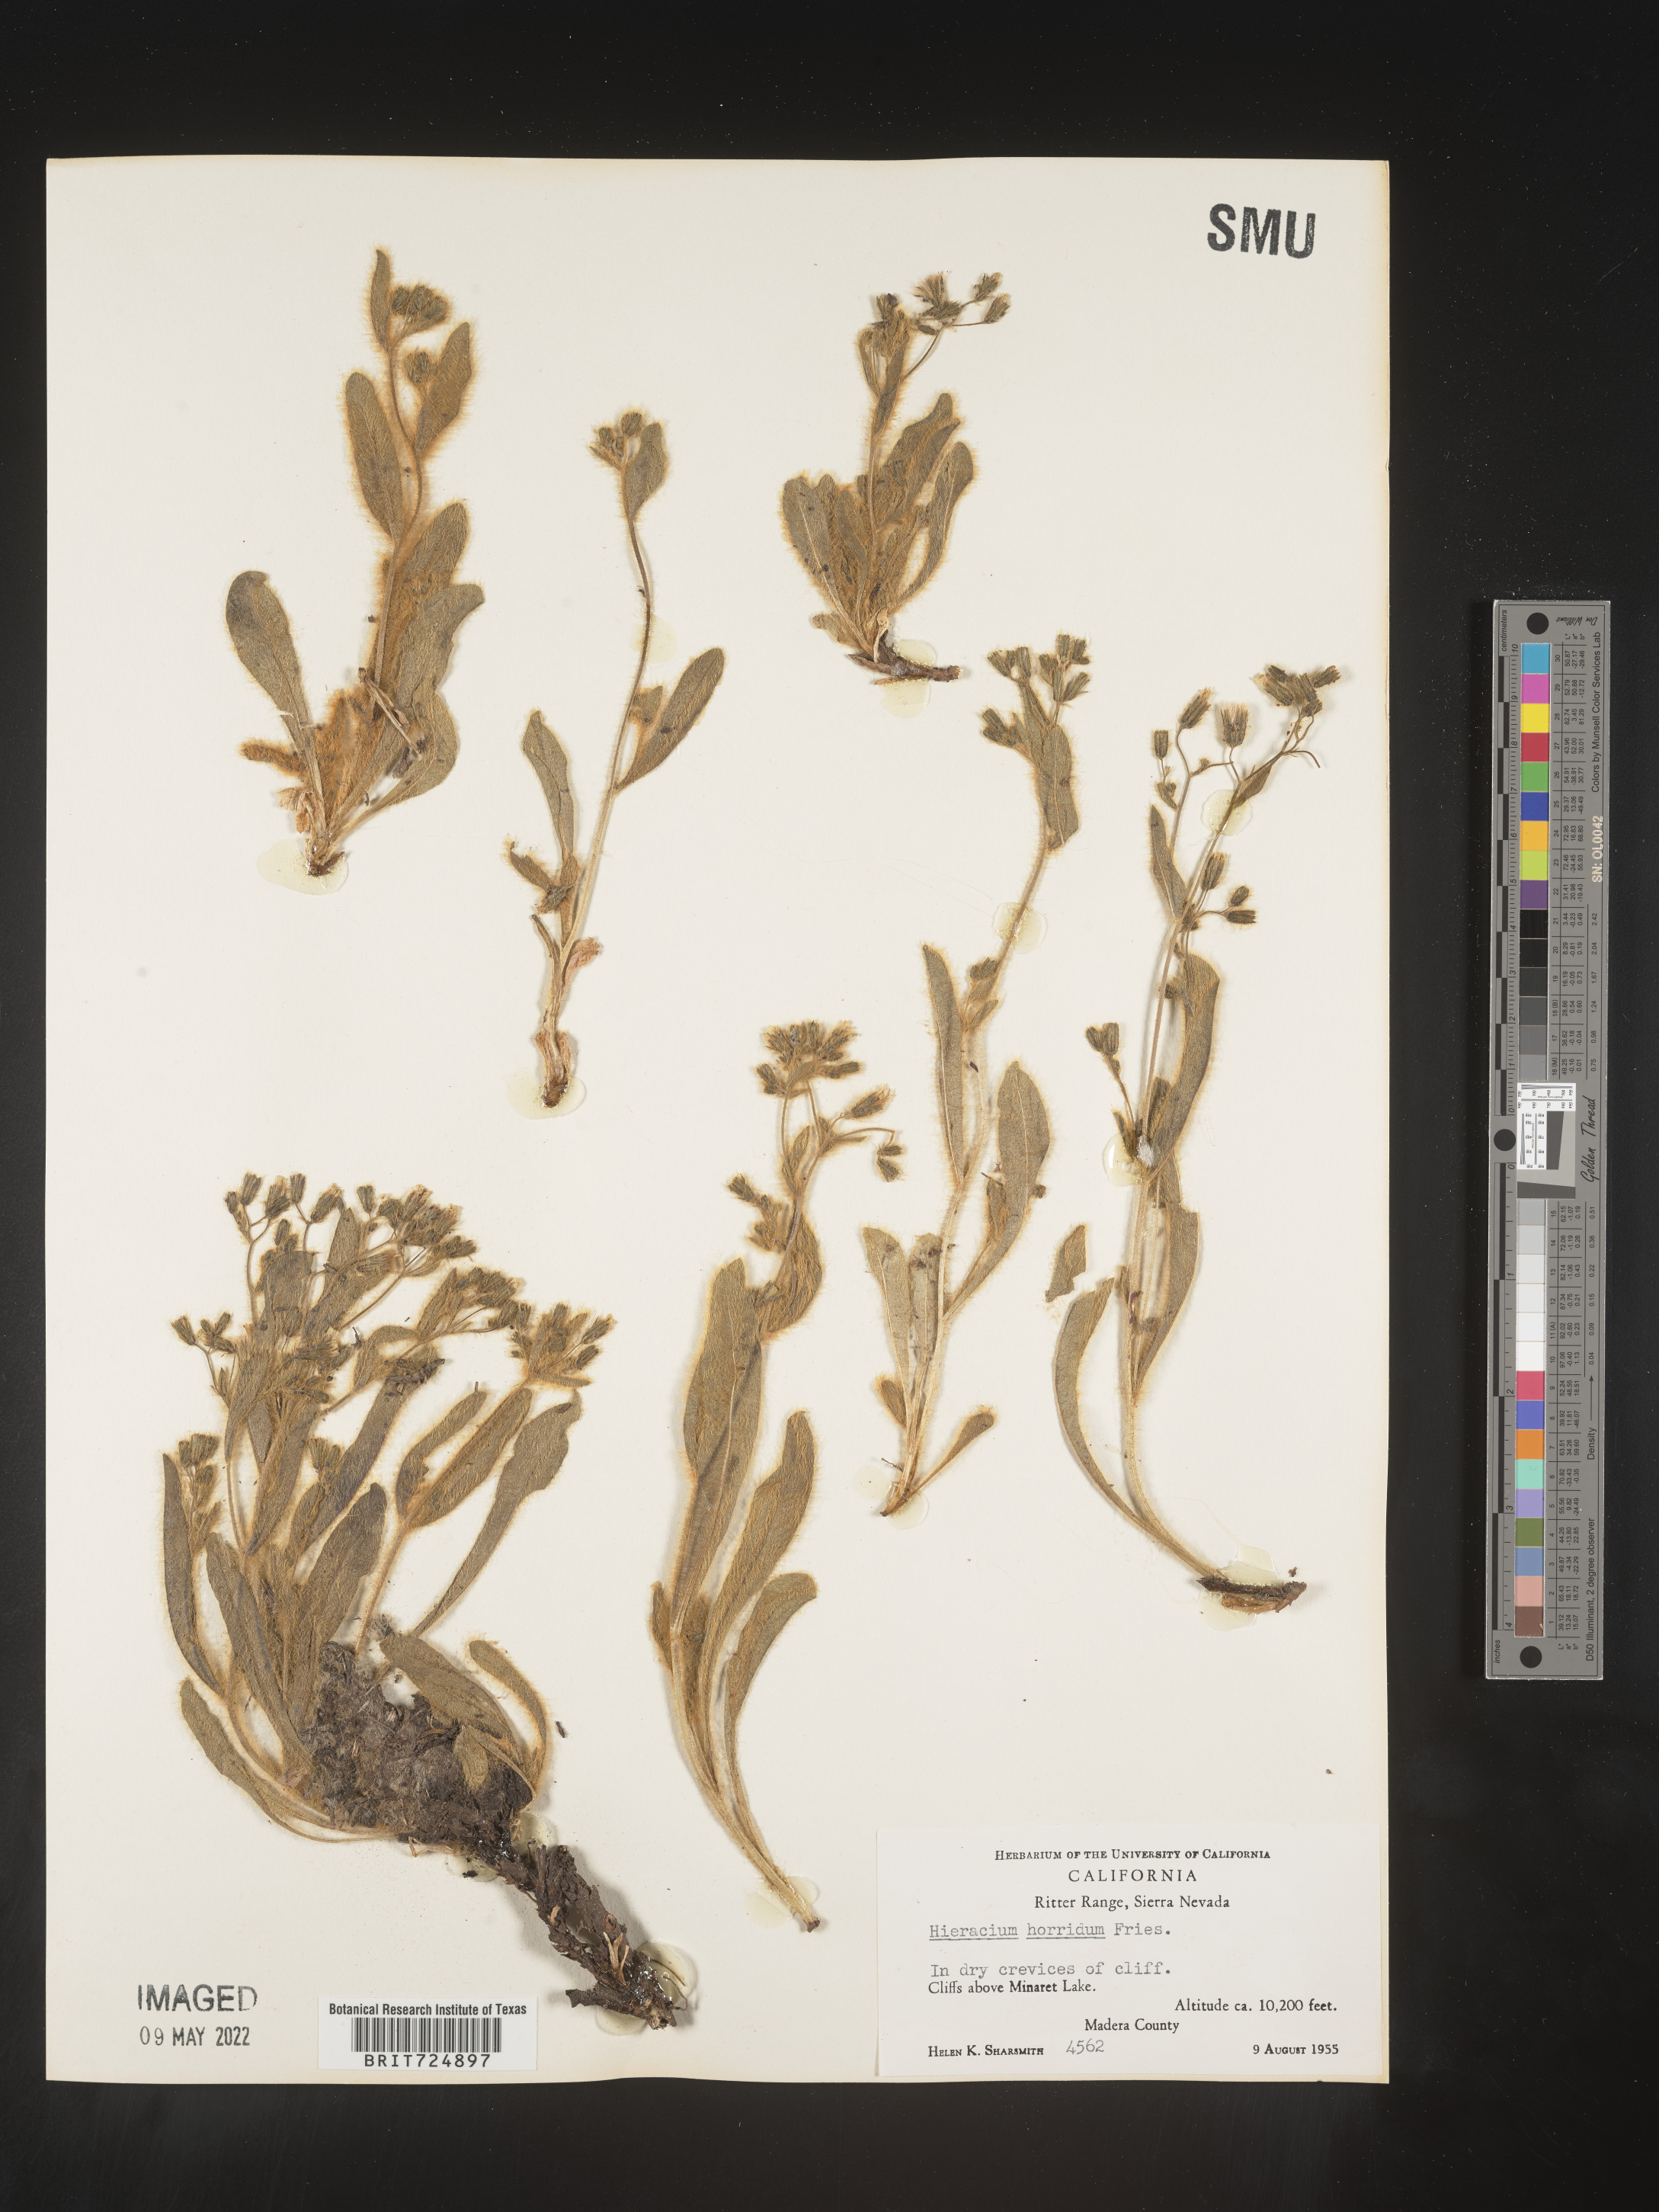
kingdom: Plantae
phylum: Tracheophyta
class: Magnoliopsida
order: Asterales
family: Asteraceae
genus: Hieracium
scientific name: Hieracium
